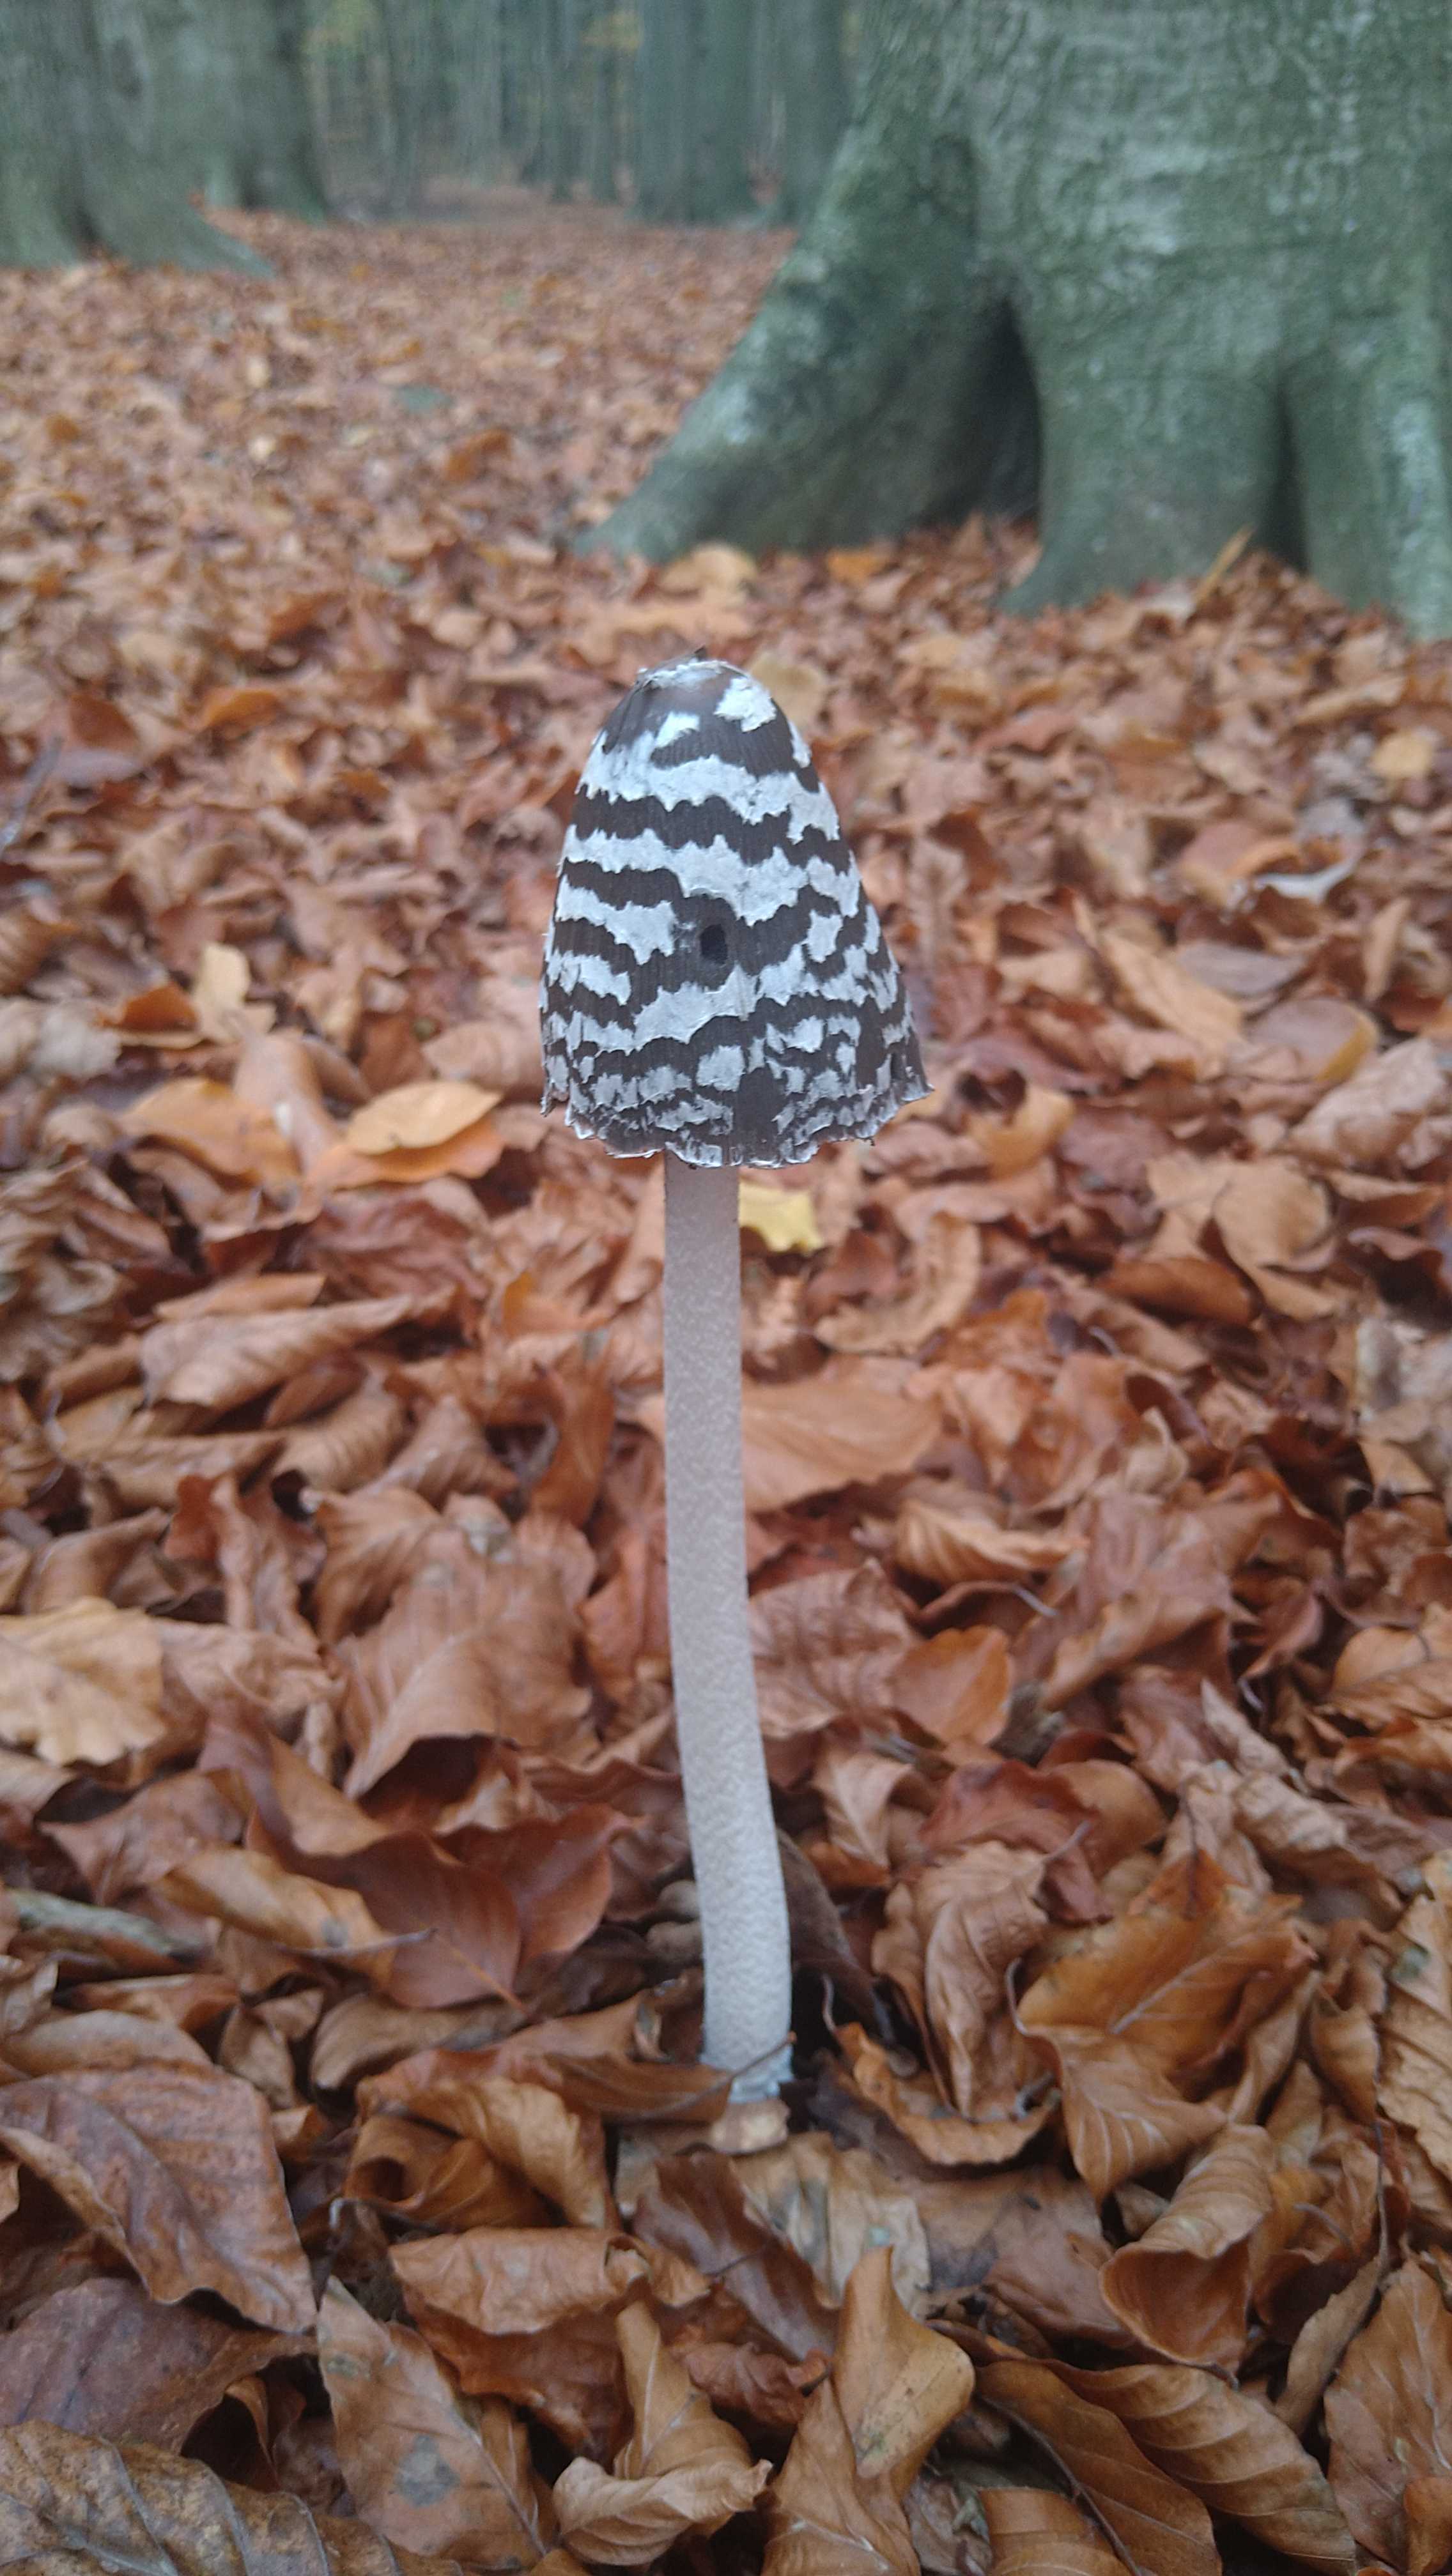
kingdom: Fungi
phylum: Basidiomycota
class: Agaricomycetes
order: Agaricales
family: Psathyrellaceae
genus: Coprinopsis
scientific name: Coprinopsis picacea
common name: skade-blækhat
